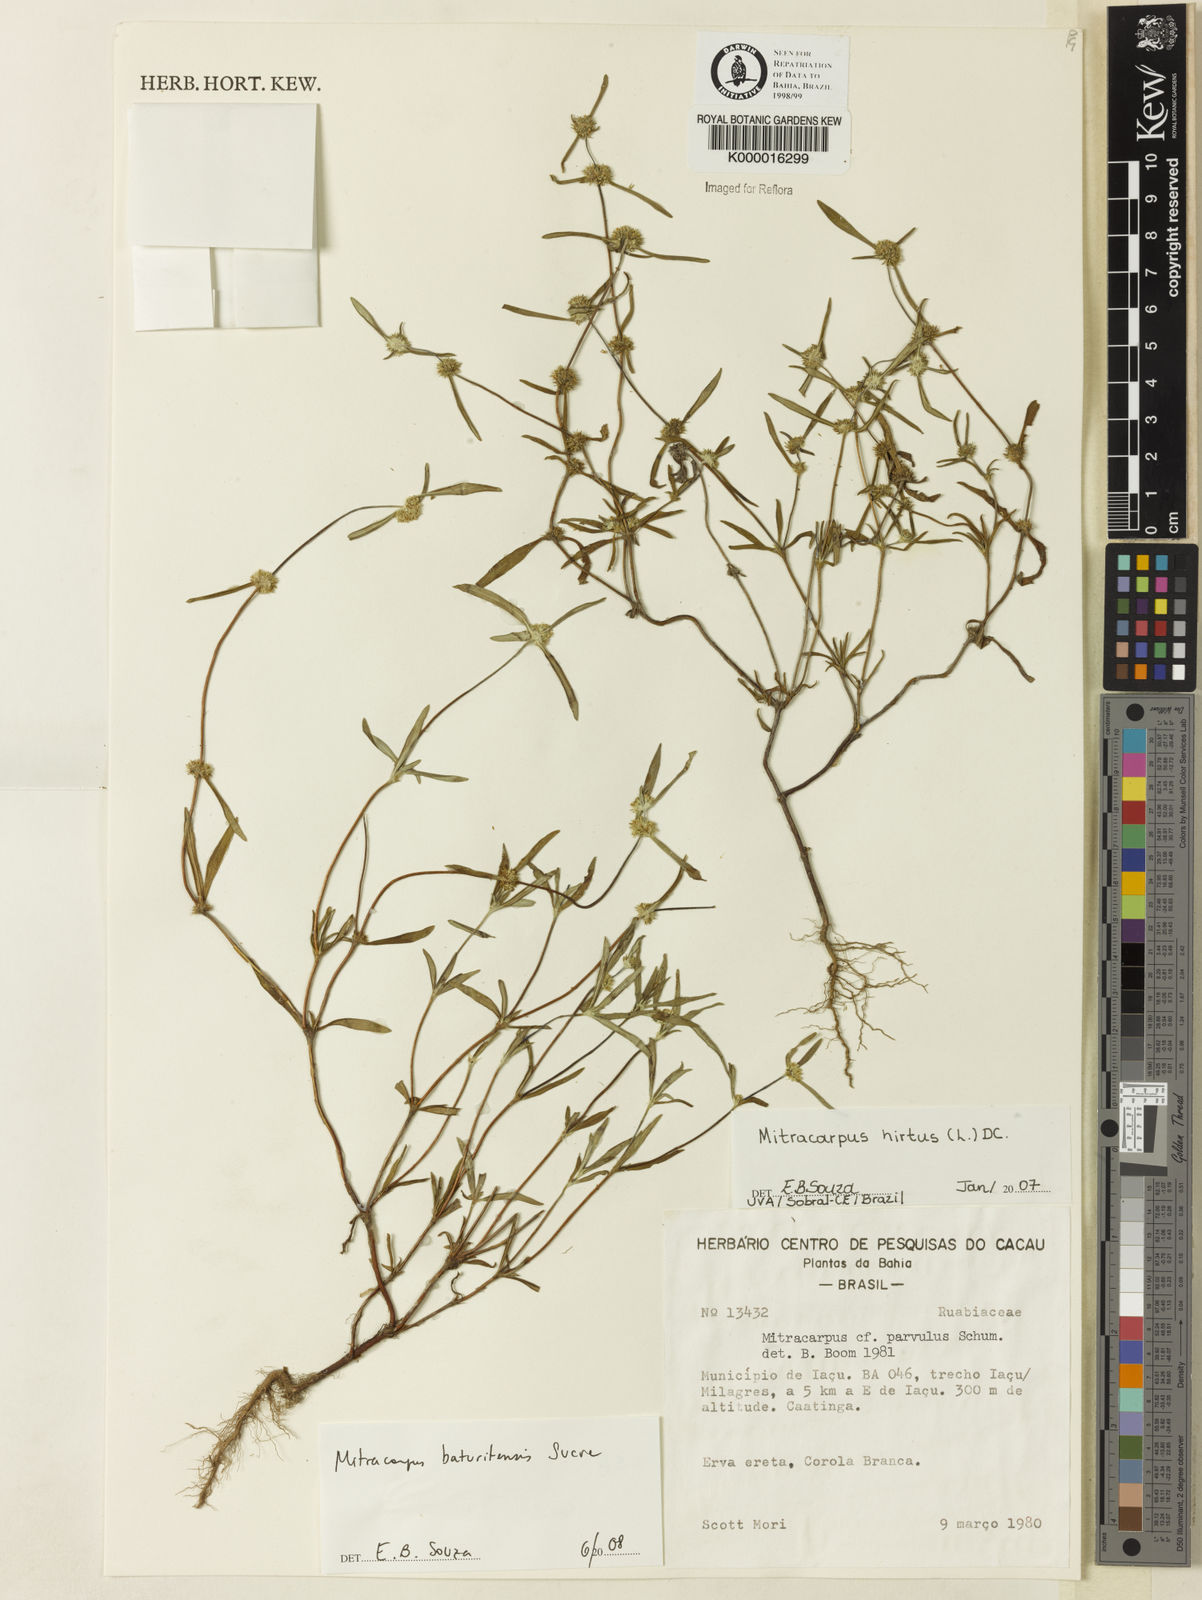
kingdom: Plantae
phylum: Tracheophyta
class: Magnoliopsida
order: Gentianales
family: Rubiaceae
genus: Mitracarpus
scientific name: Mitracarpus hirtus
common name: Tropical girdlepod
